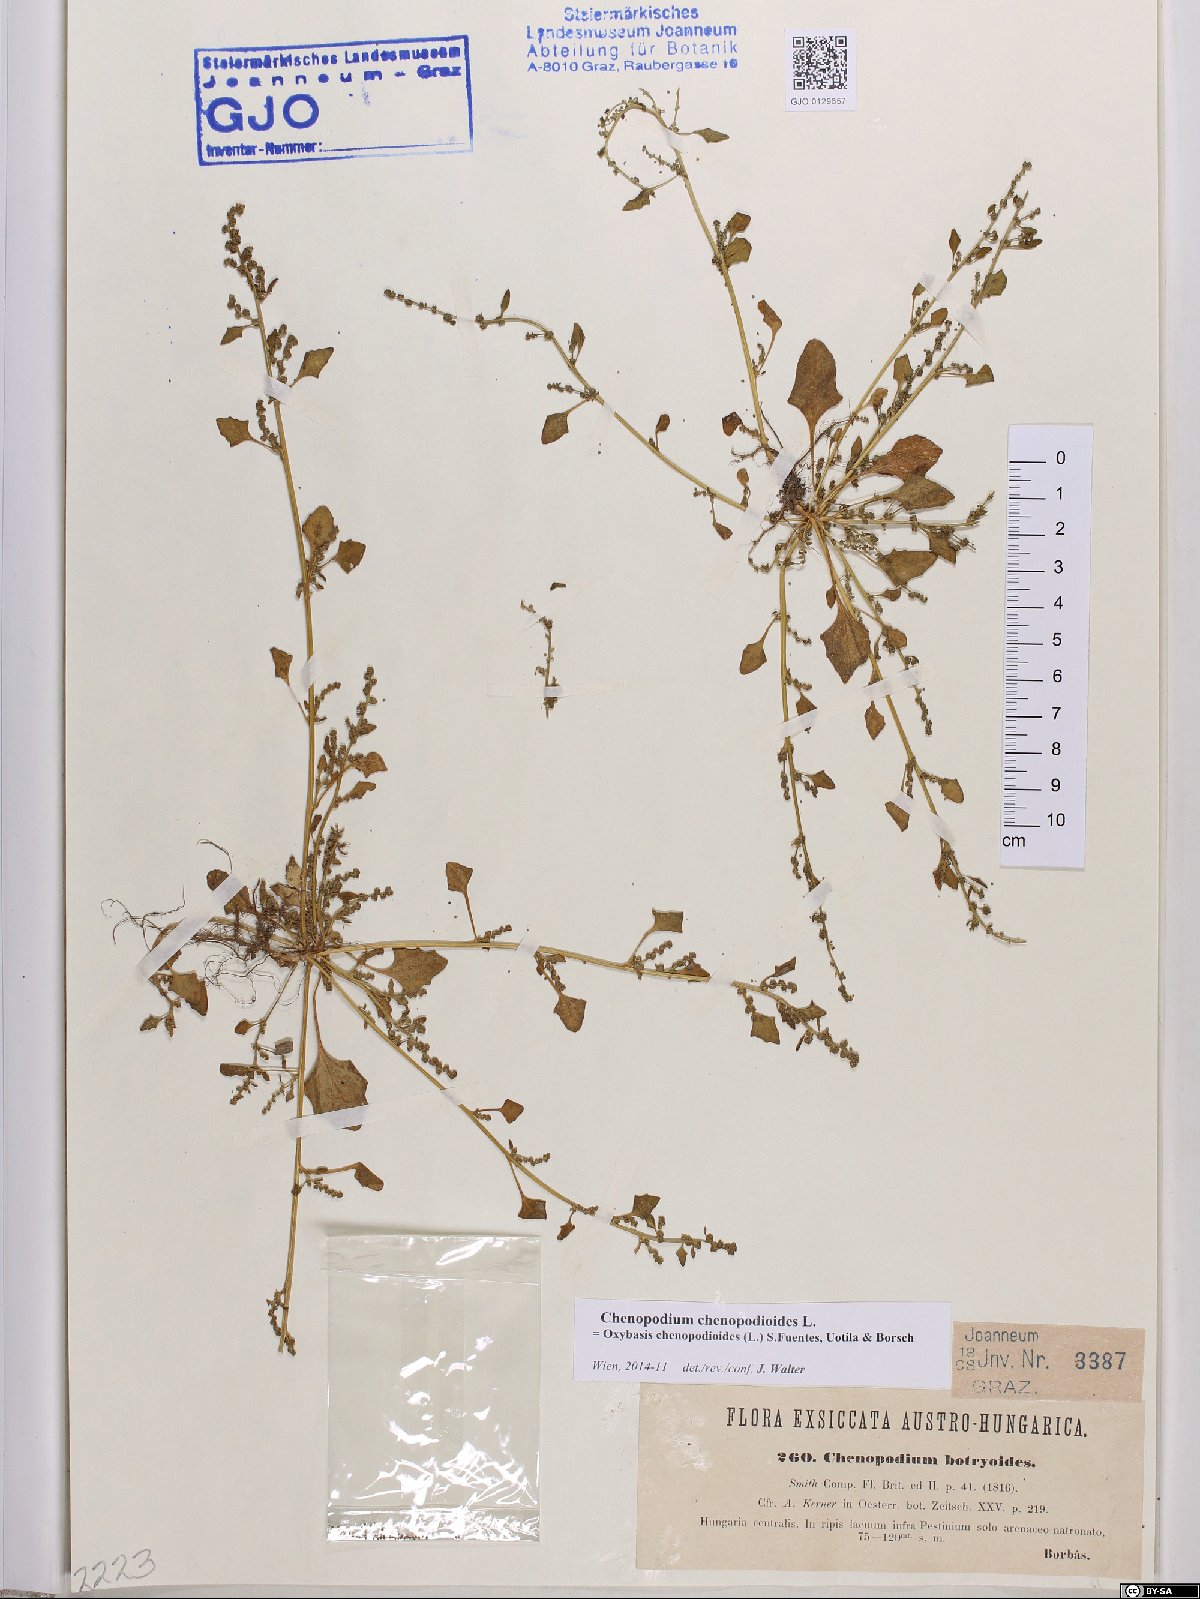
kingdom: Plantae
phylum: Tracheophyta
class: Magnoliopsida
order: Caryophyllales
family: Amaranthaceae
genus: Oxybasis
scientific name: Oxybasis chenopodioides
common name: Saltmarsh goosefoot
